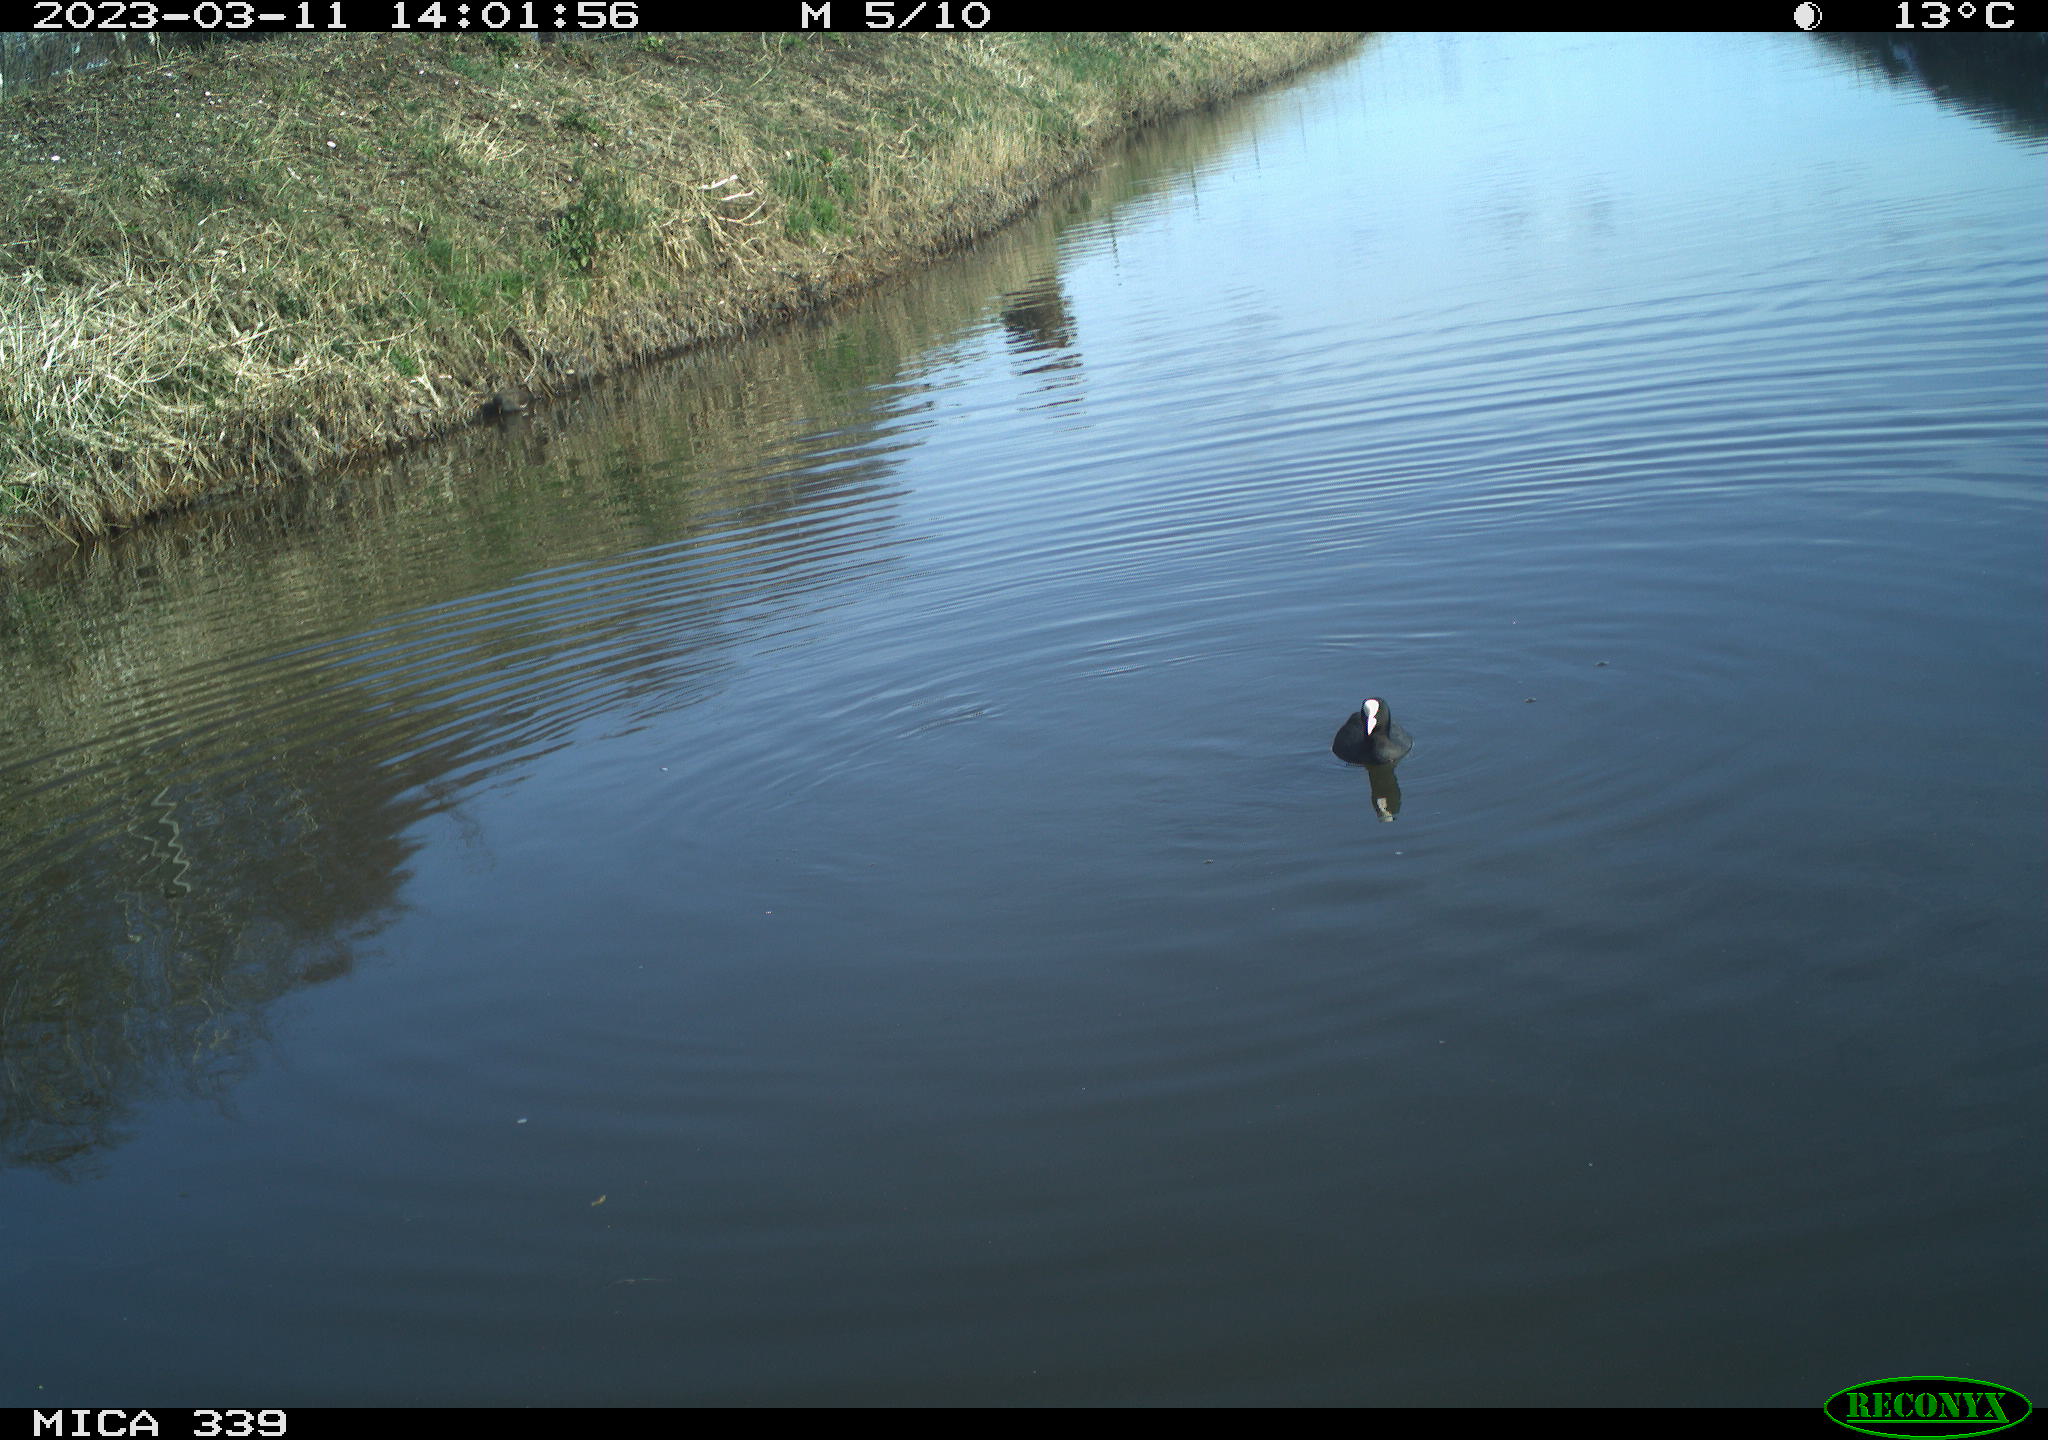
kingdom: Animalia
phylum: Chordata
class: Aves
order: Gruiformes
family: Rallidae
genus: Fulica
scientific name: Fulica atra
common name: Eurasian coot
